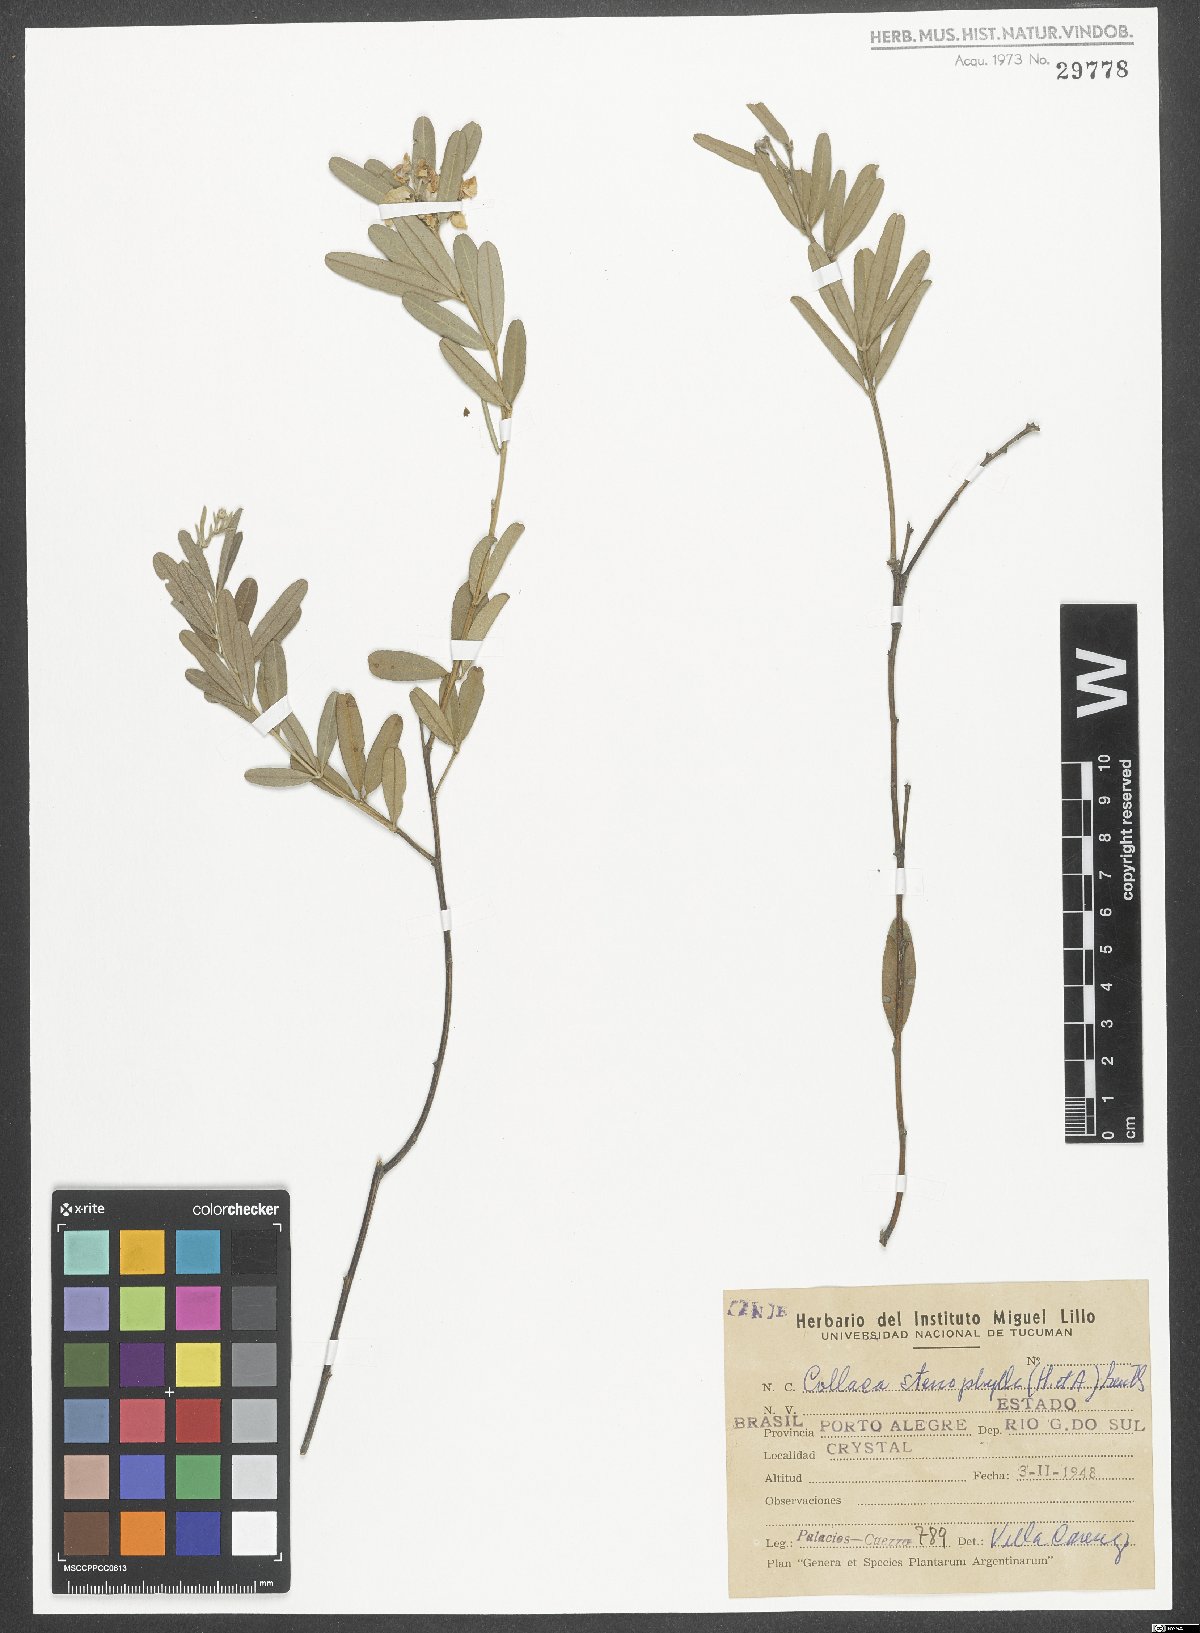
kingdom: Plantae
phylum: Tracheophyta
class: Magnoliopsida
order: Fabales
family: Fabaceae
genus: Collaea
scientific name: Collaea stenophylla
